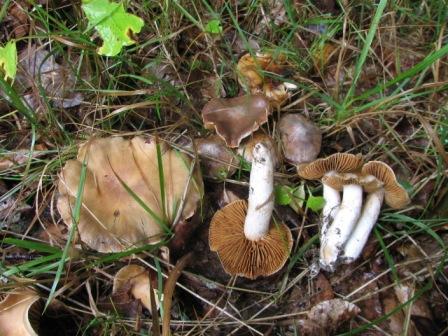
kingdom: Fungi
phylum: Basidiomycota
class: Agaricomycetes
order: Agaricales
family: Cortinariaceae
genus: Cortinarius
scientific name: Cortinarius
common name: jod-slørhat
